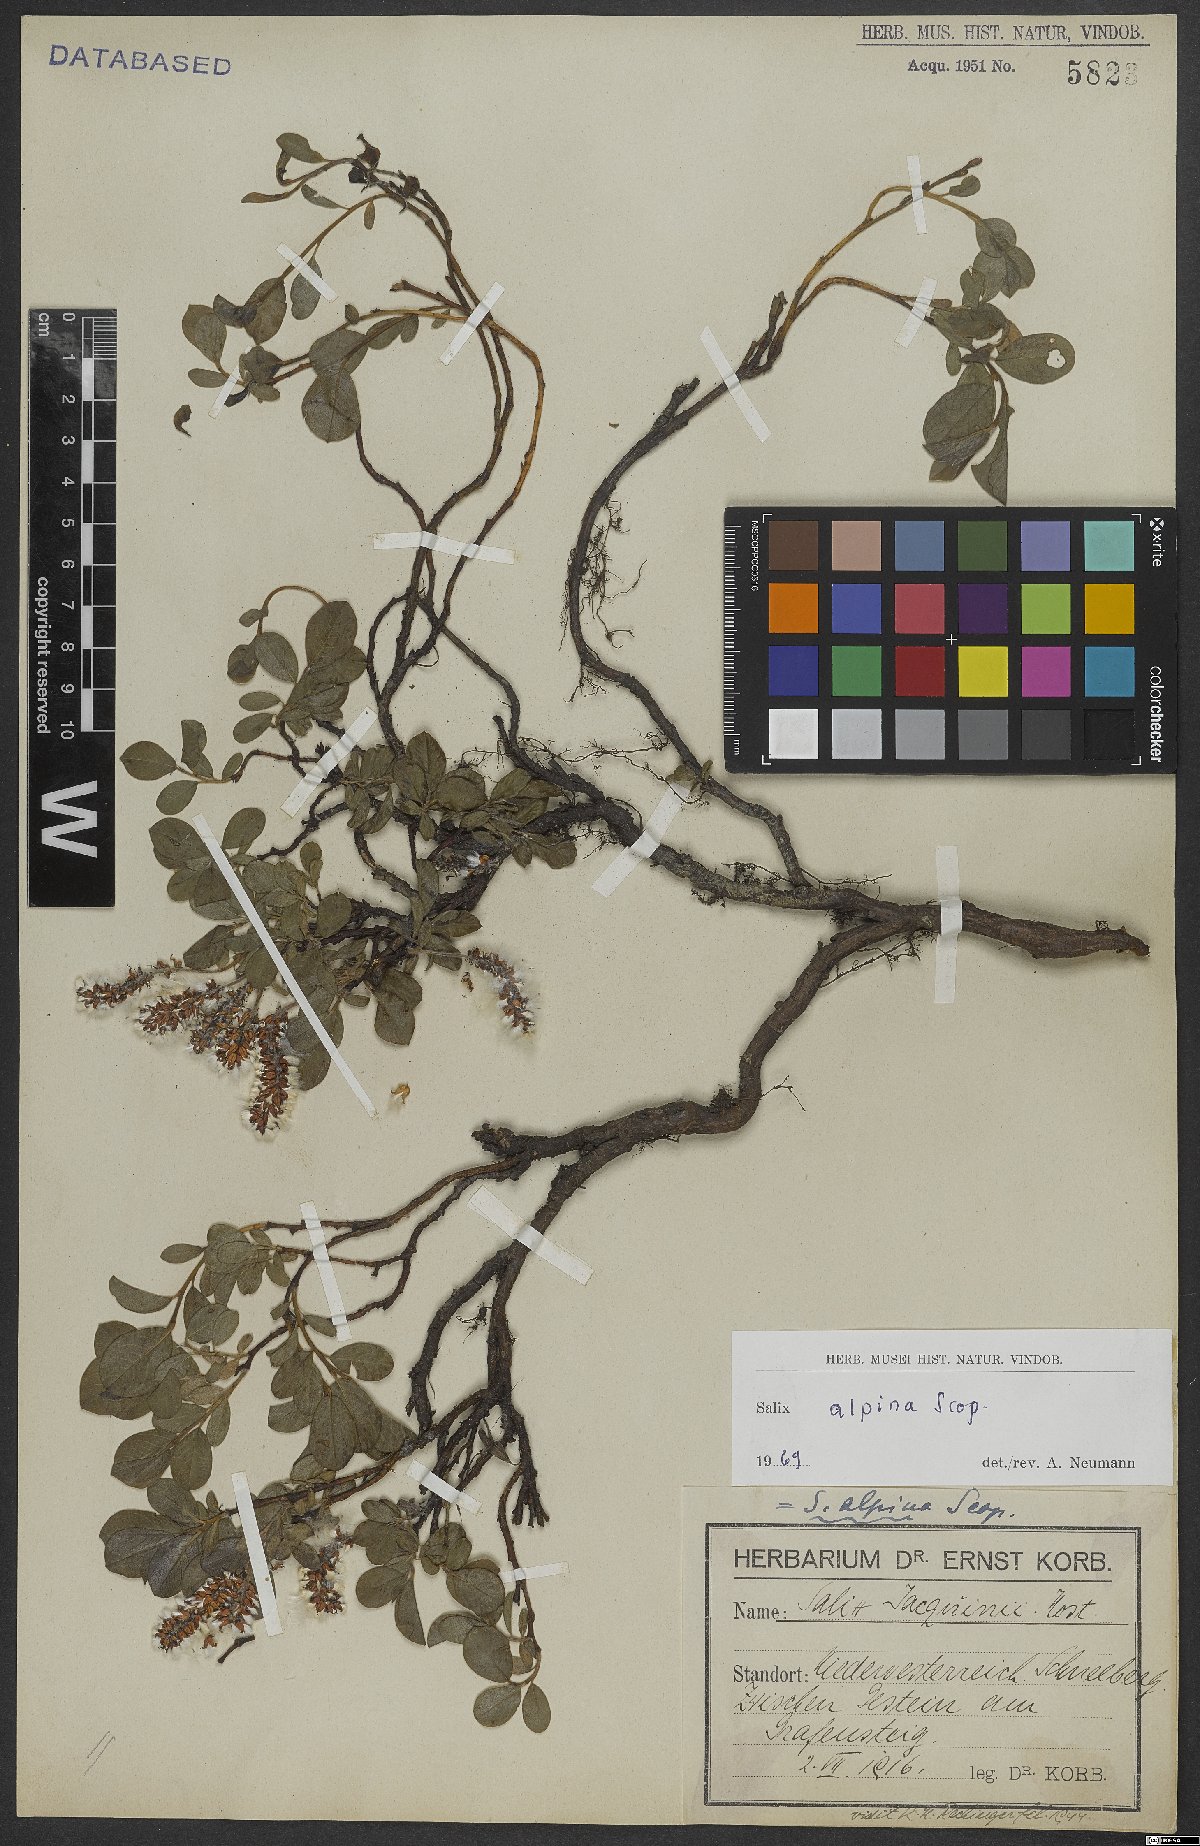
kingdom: Plantae
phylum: Tracheophyta
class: Magnoliopsida
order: Malpighiales
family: Salicaceae
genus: Salix
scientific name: Salix alpina
